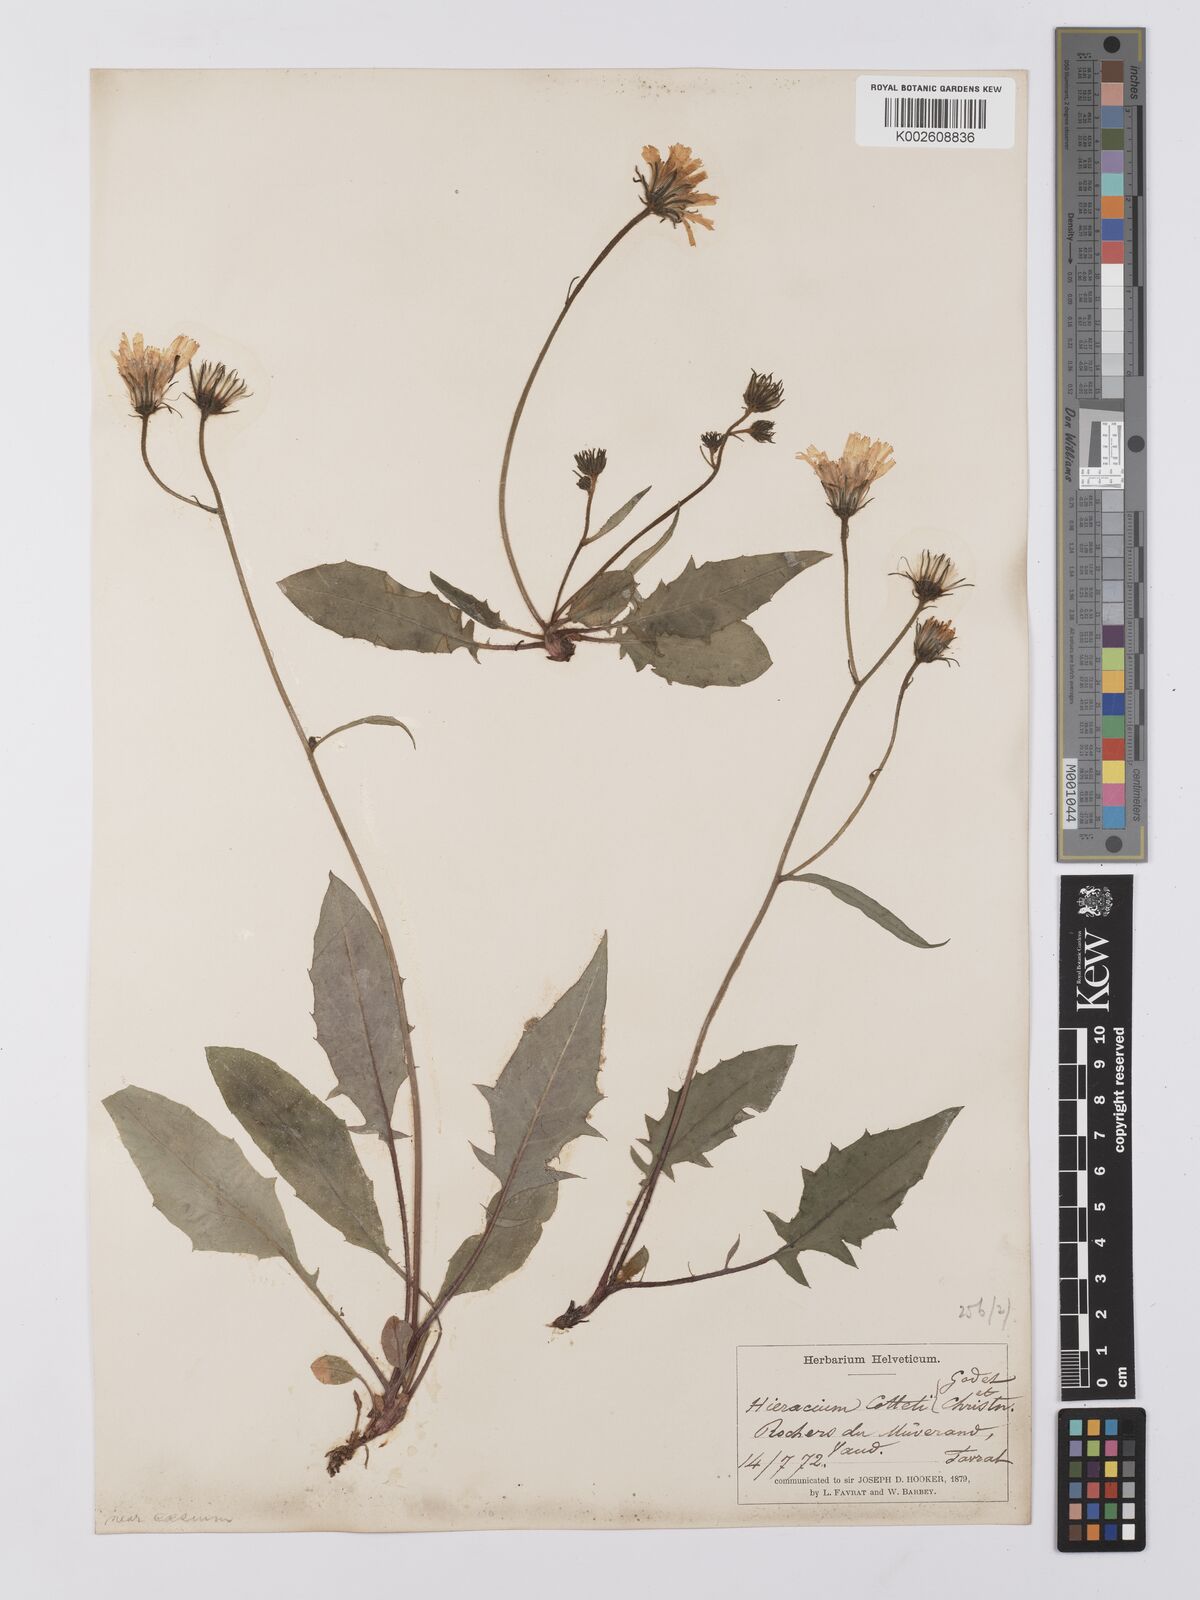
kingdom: Plantae
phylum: Tracheophyta
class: Magnoliopsida
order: Asterales
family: Asteraceae
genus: Hieracium
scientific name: Hieracium cottetii
